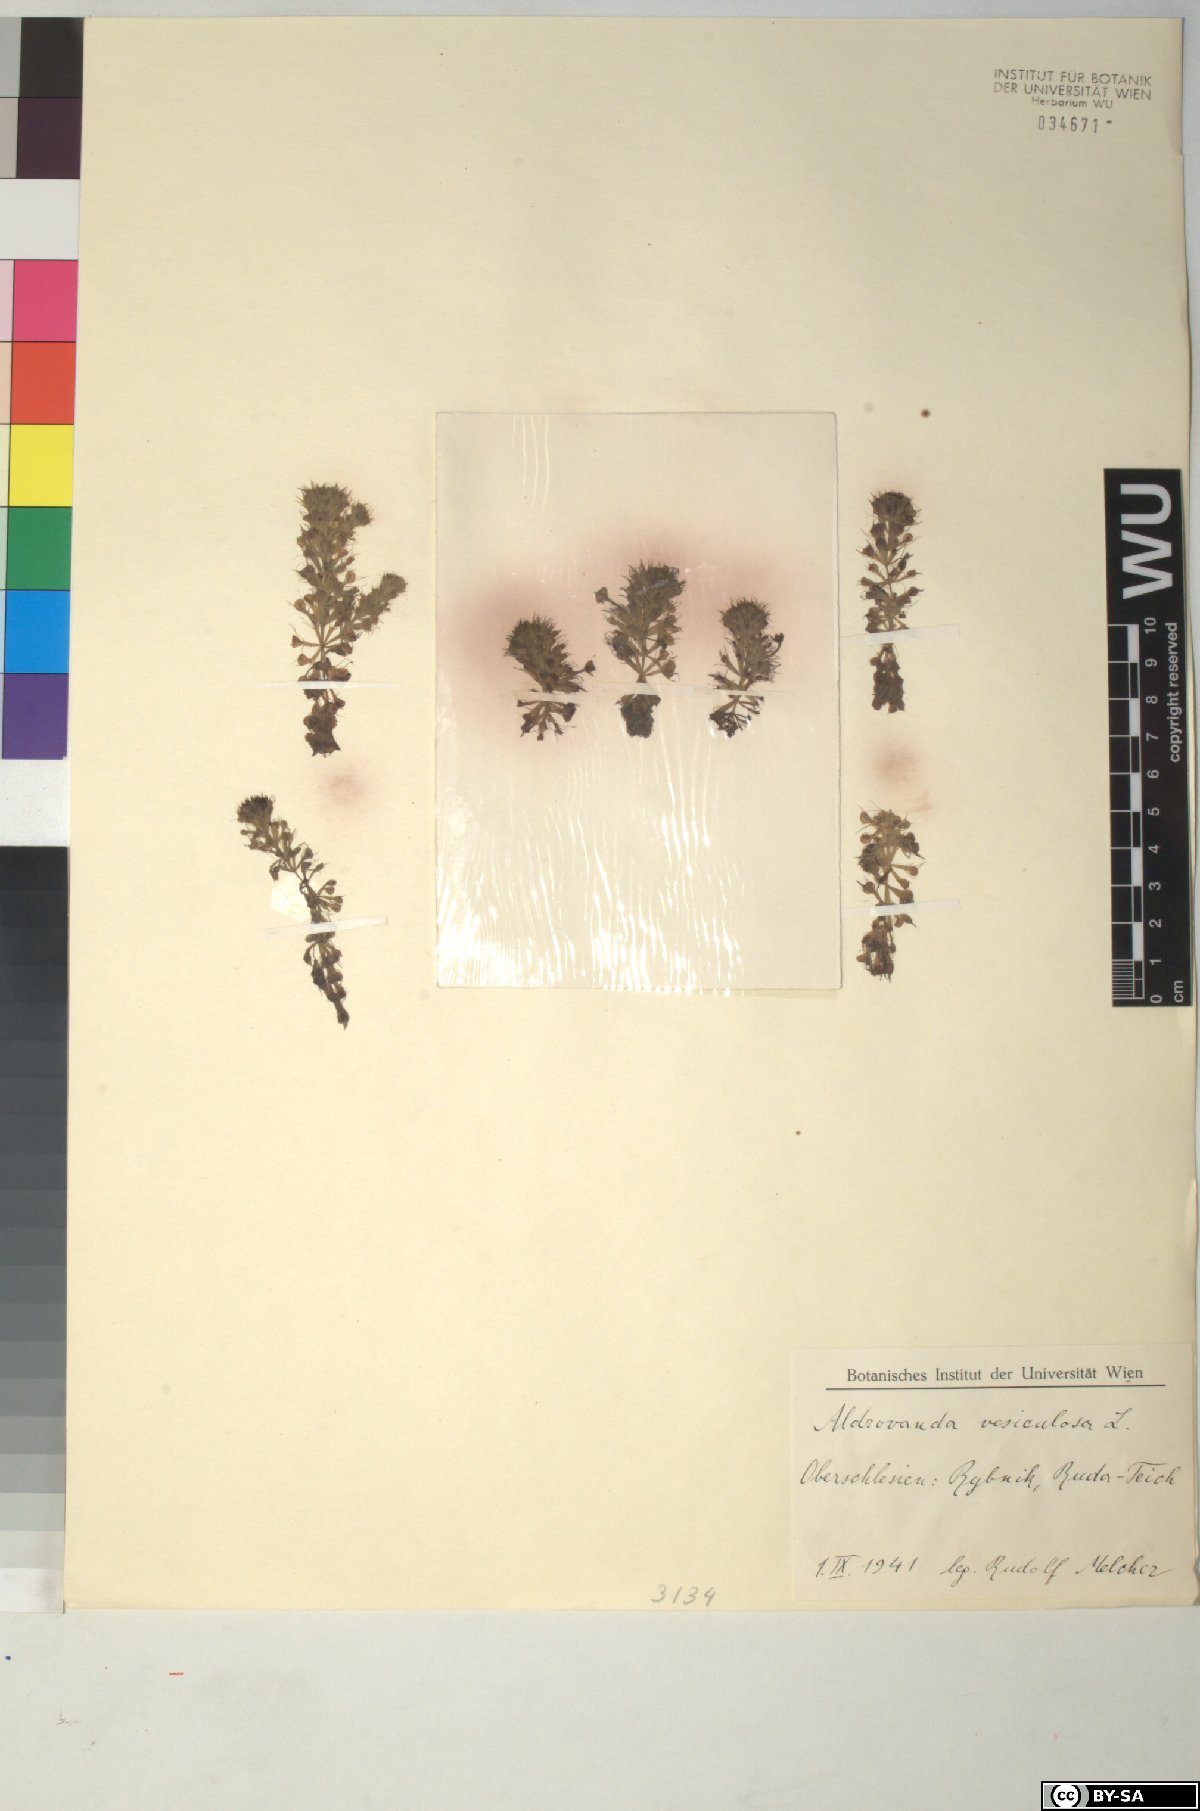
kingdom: Plantae
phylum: Tracheophyta
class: Magnoliopsida
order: Caryophyllales
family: Droseraceae
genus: Aldrovanda
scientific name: Aldrovanda vesiculosa
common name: Waterwheel plant
